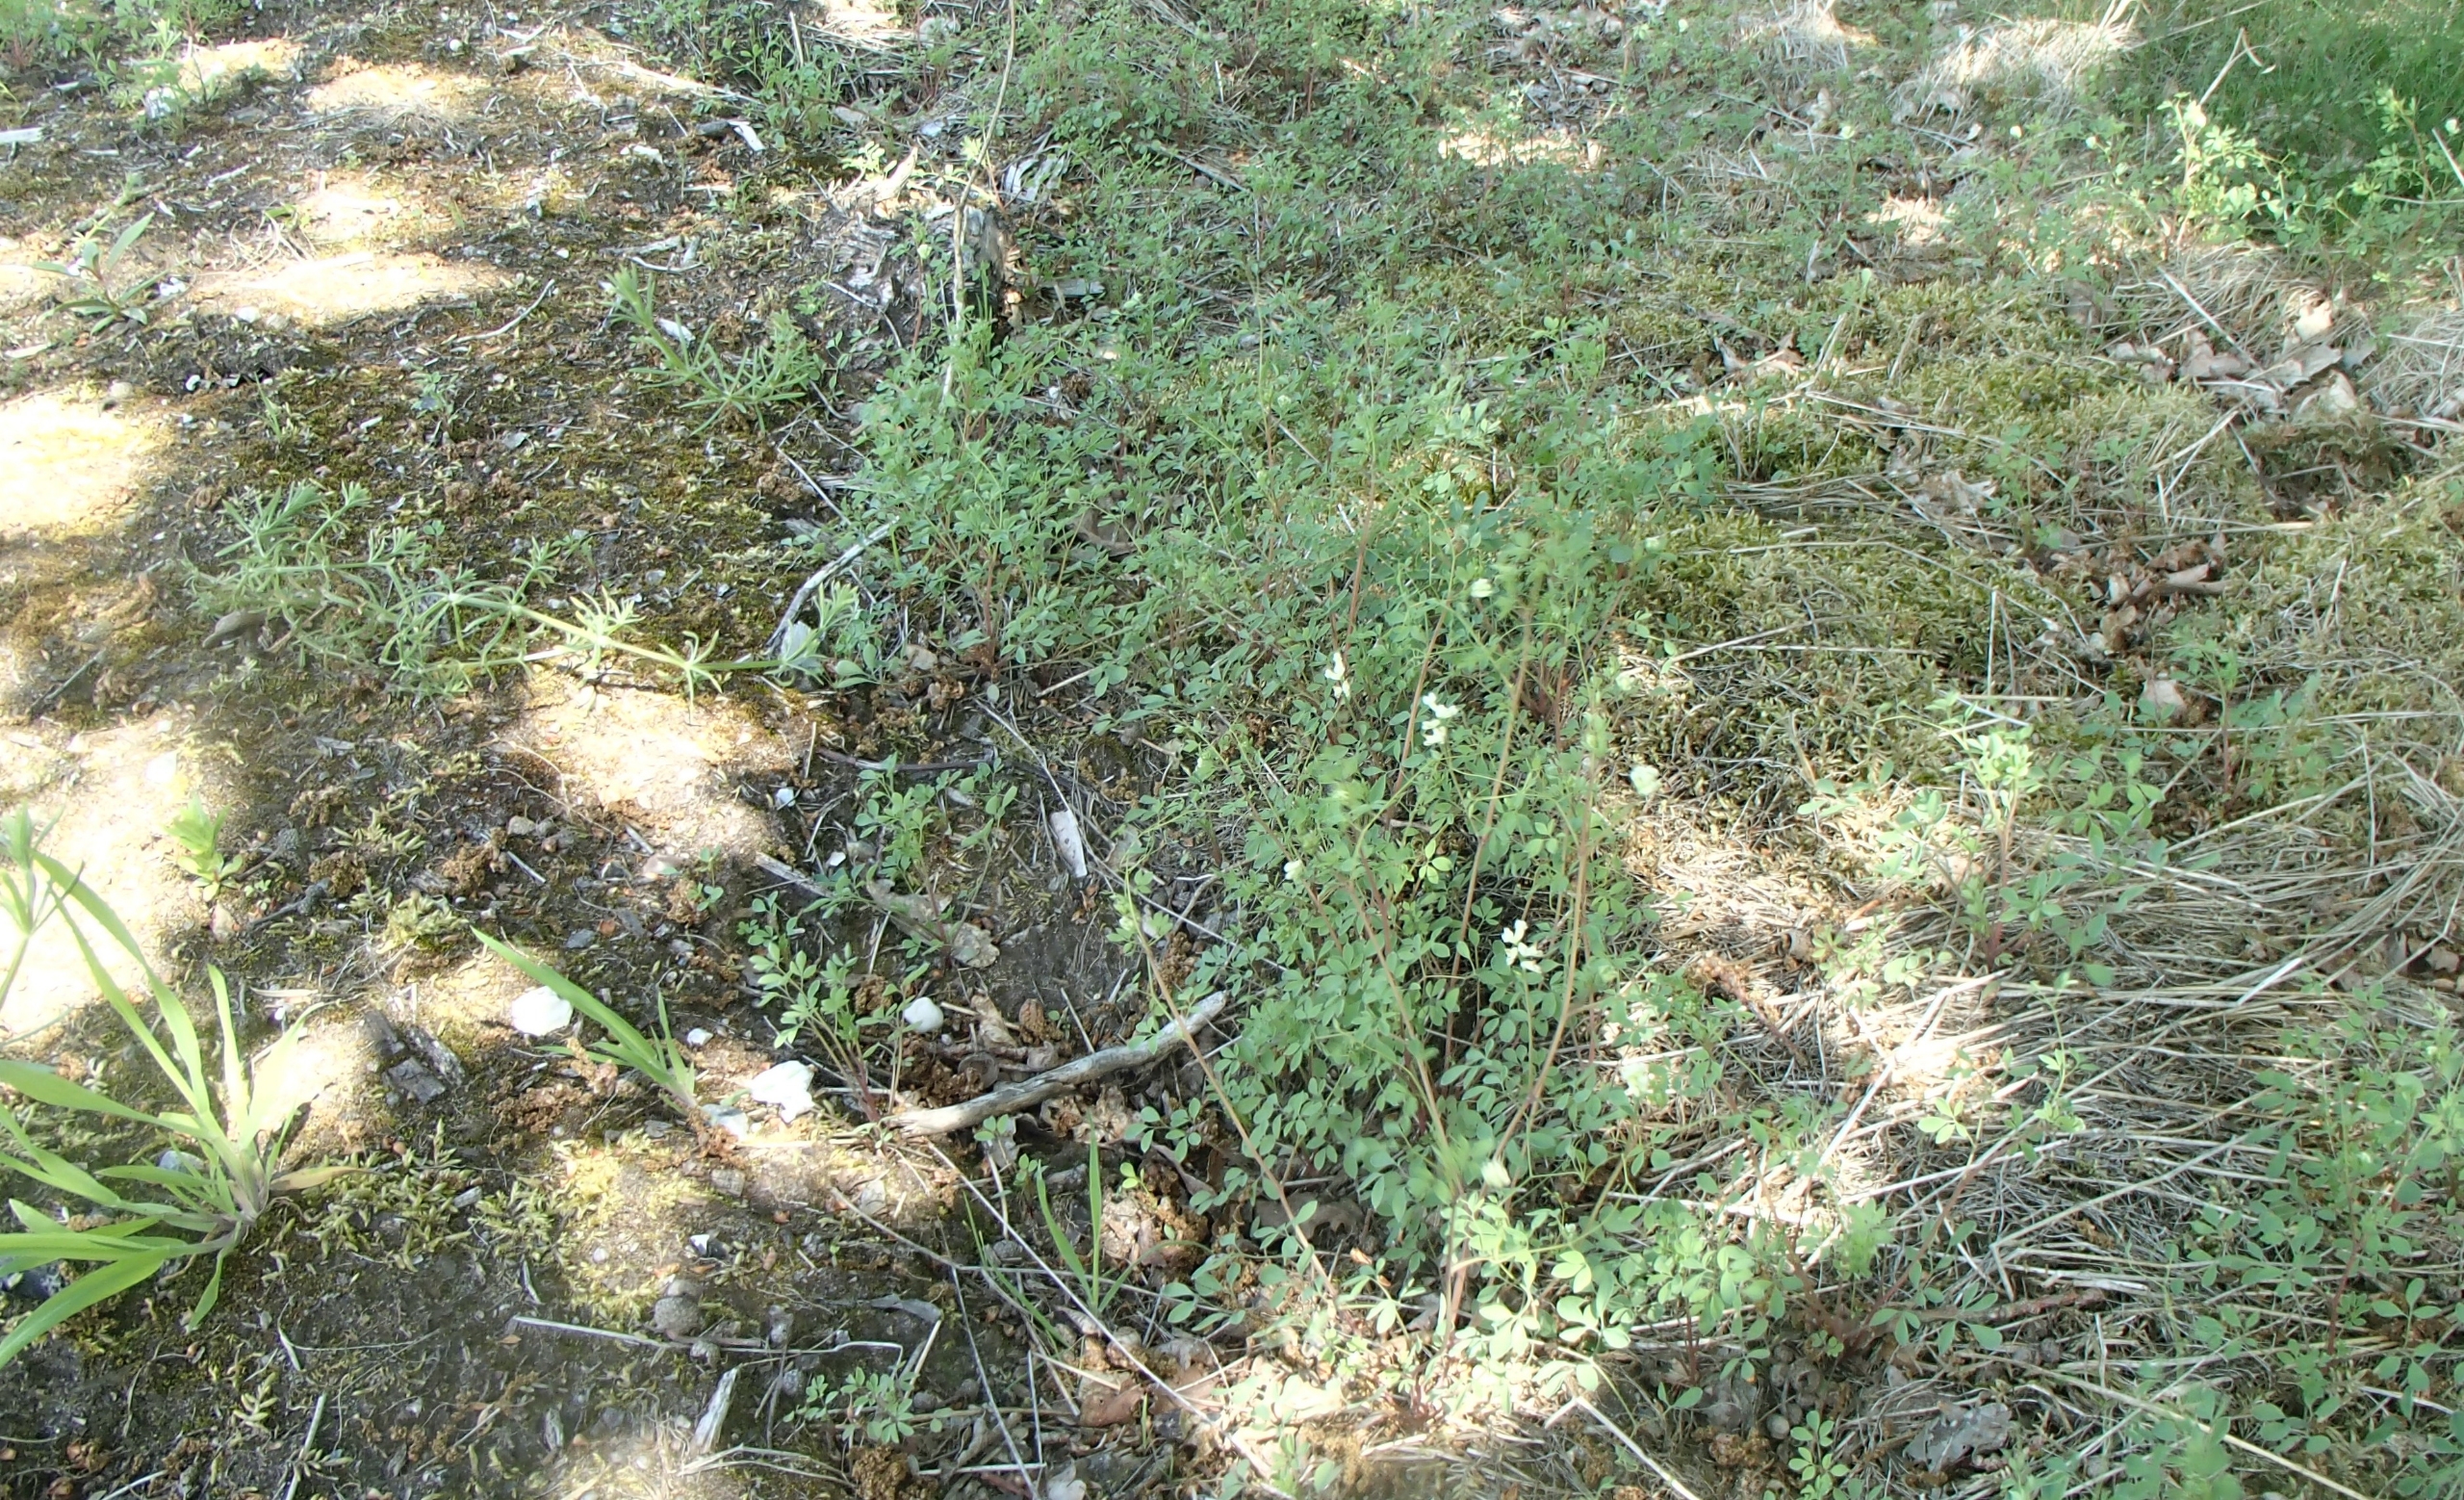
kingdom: Plantae
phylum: Tracheophyta
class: Magnoliopsida
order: Ranunculales
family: Papaveraceae
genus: Ceratocapnos
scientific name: Ceratocapnos claviculata
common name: Klatrende lærkespore
